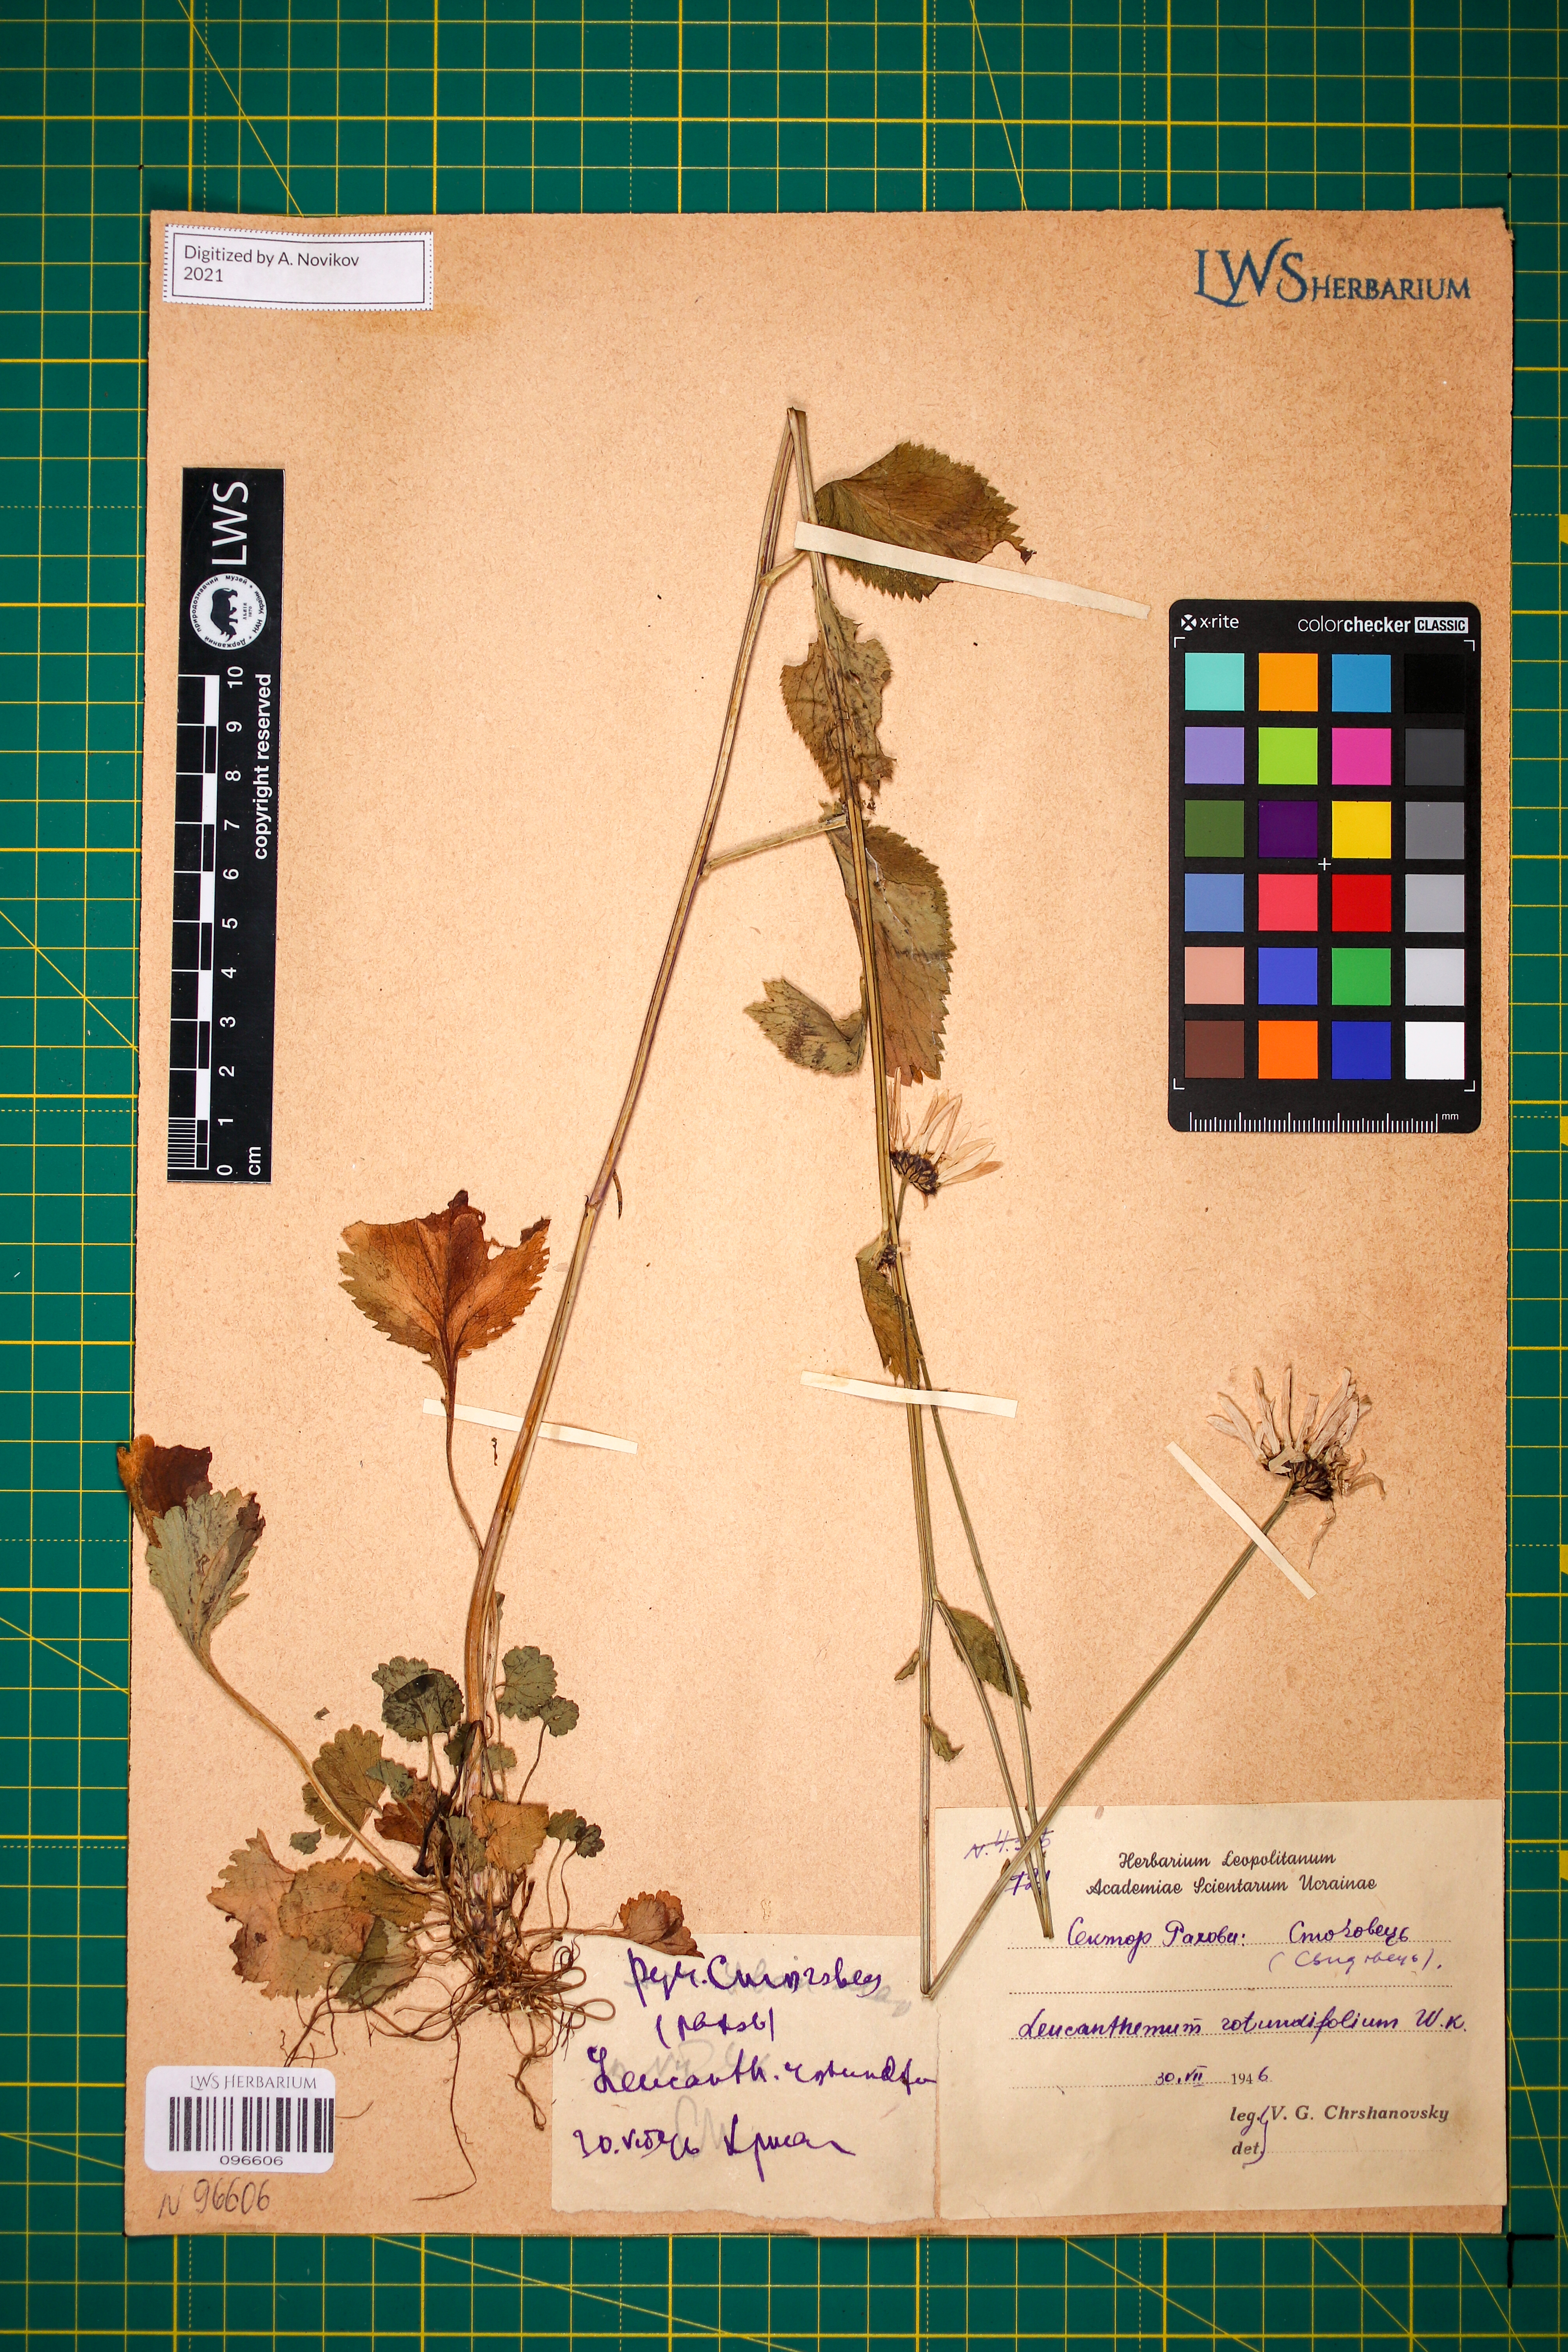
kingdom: Plantae
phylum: Tracheophyta
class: Magnoliopsida
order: Asterales
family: Asteraceae
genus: Leucanthemum
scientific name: Leucanthemum rotundifolium
